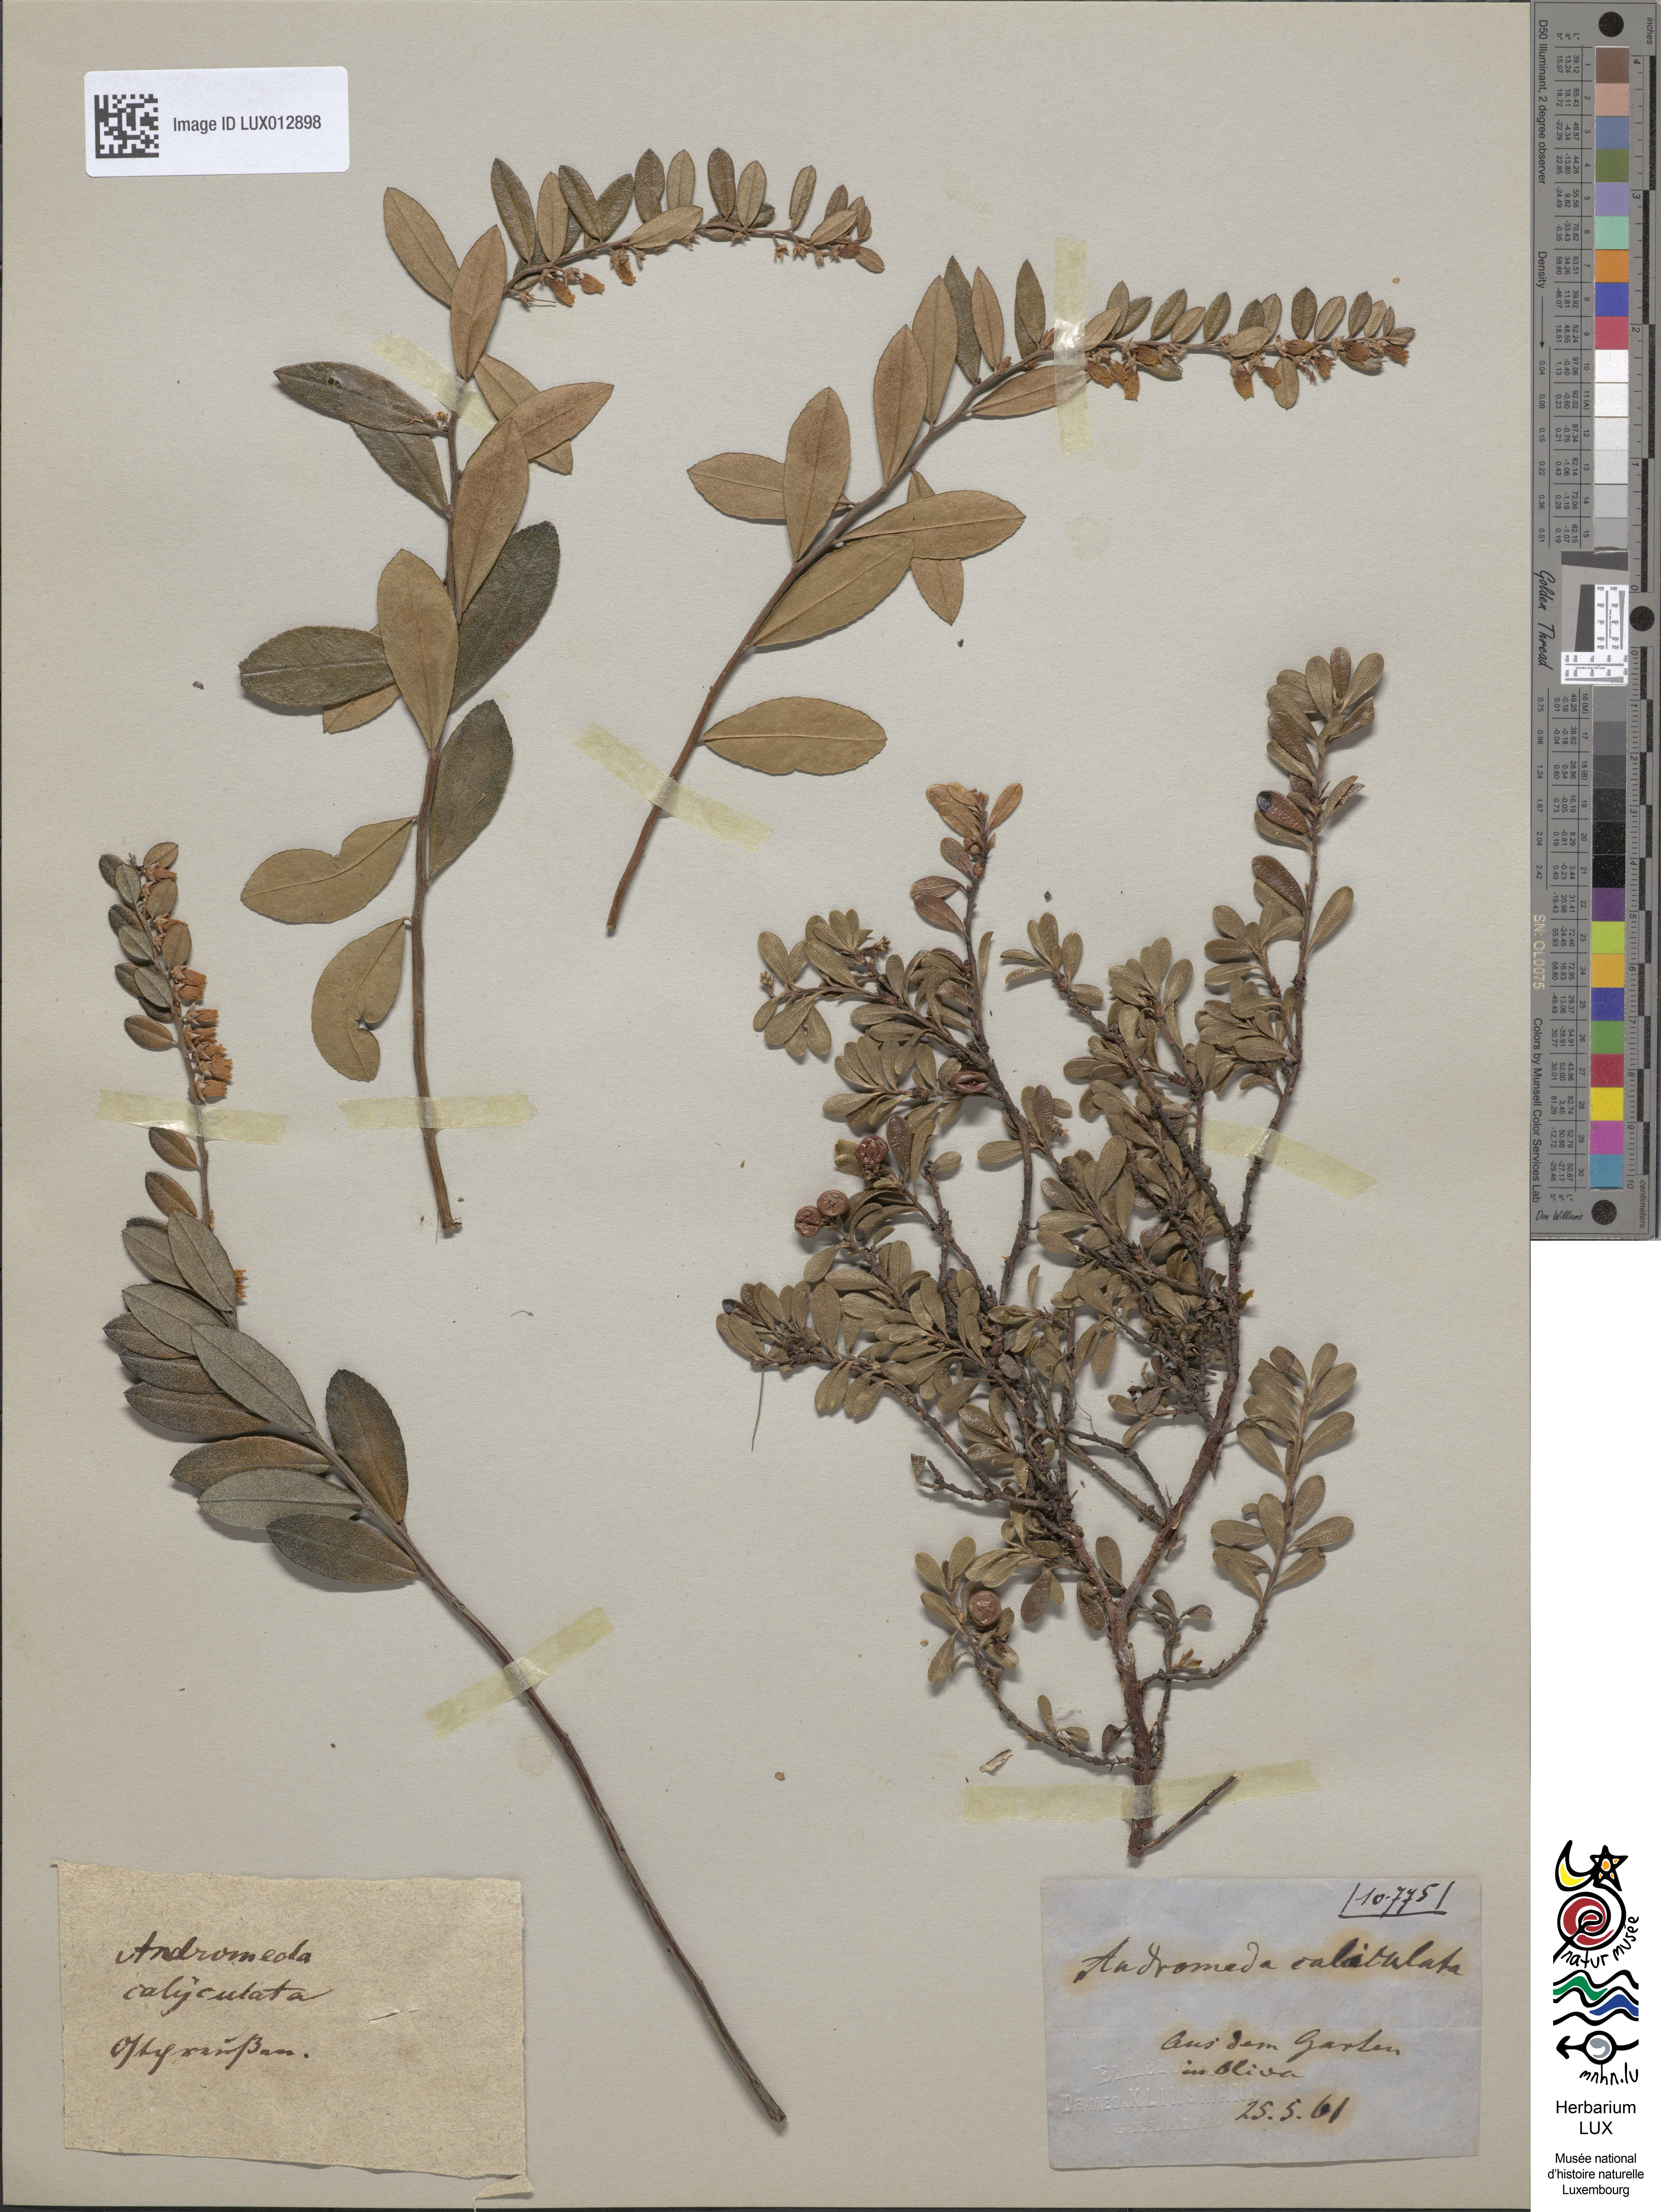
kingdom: Plantae
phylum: Tracheophyta
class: Magnoliopsida
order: Ericales
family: Ericaceae
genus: Chamaedaphne
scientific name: Chamaedaphne calyculata
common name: Leatherleaf
